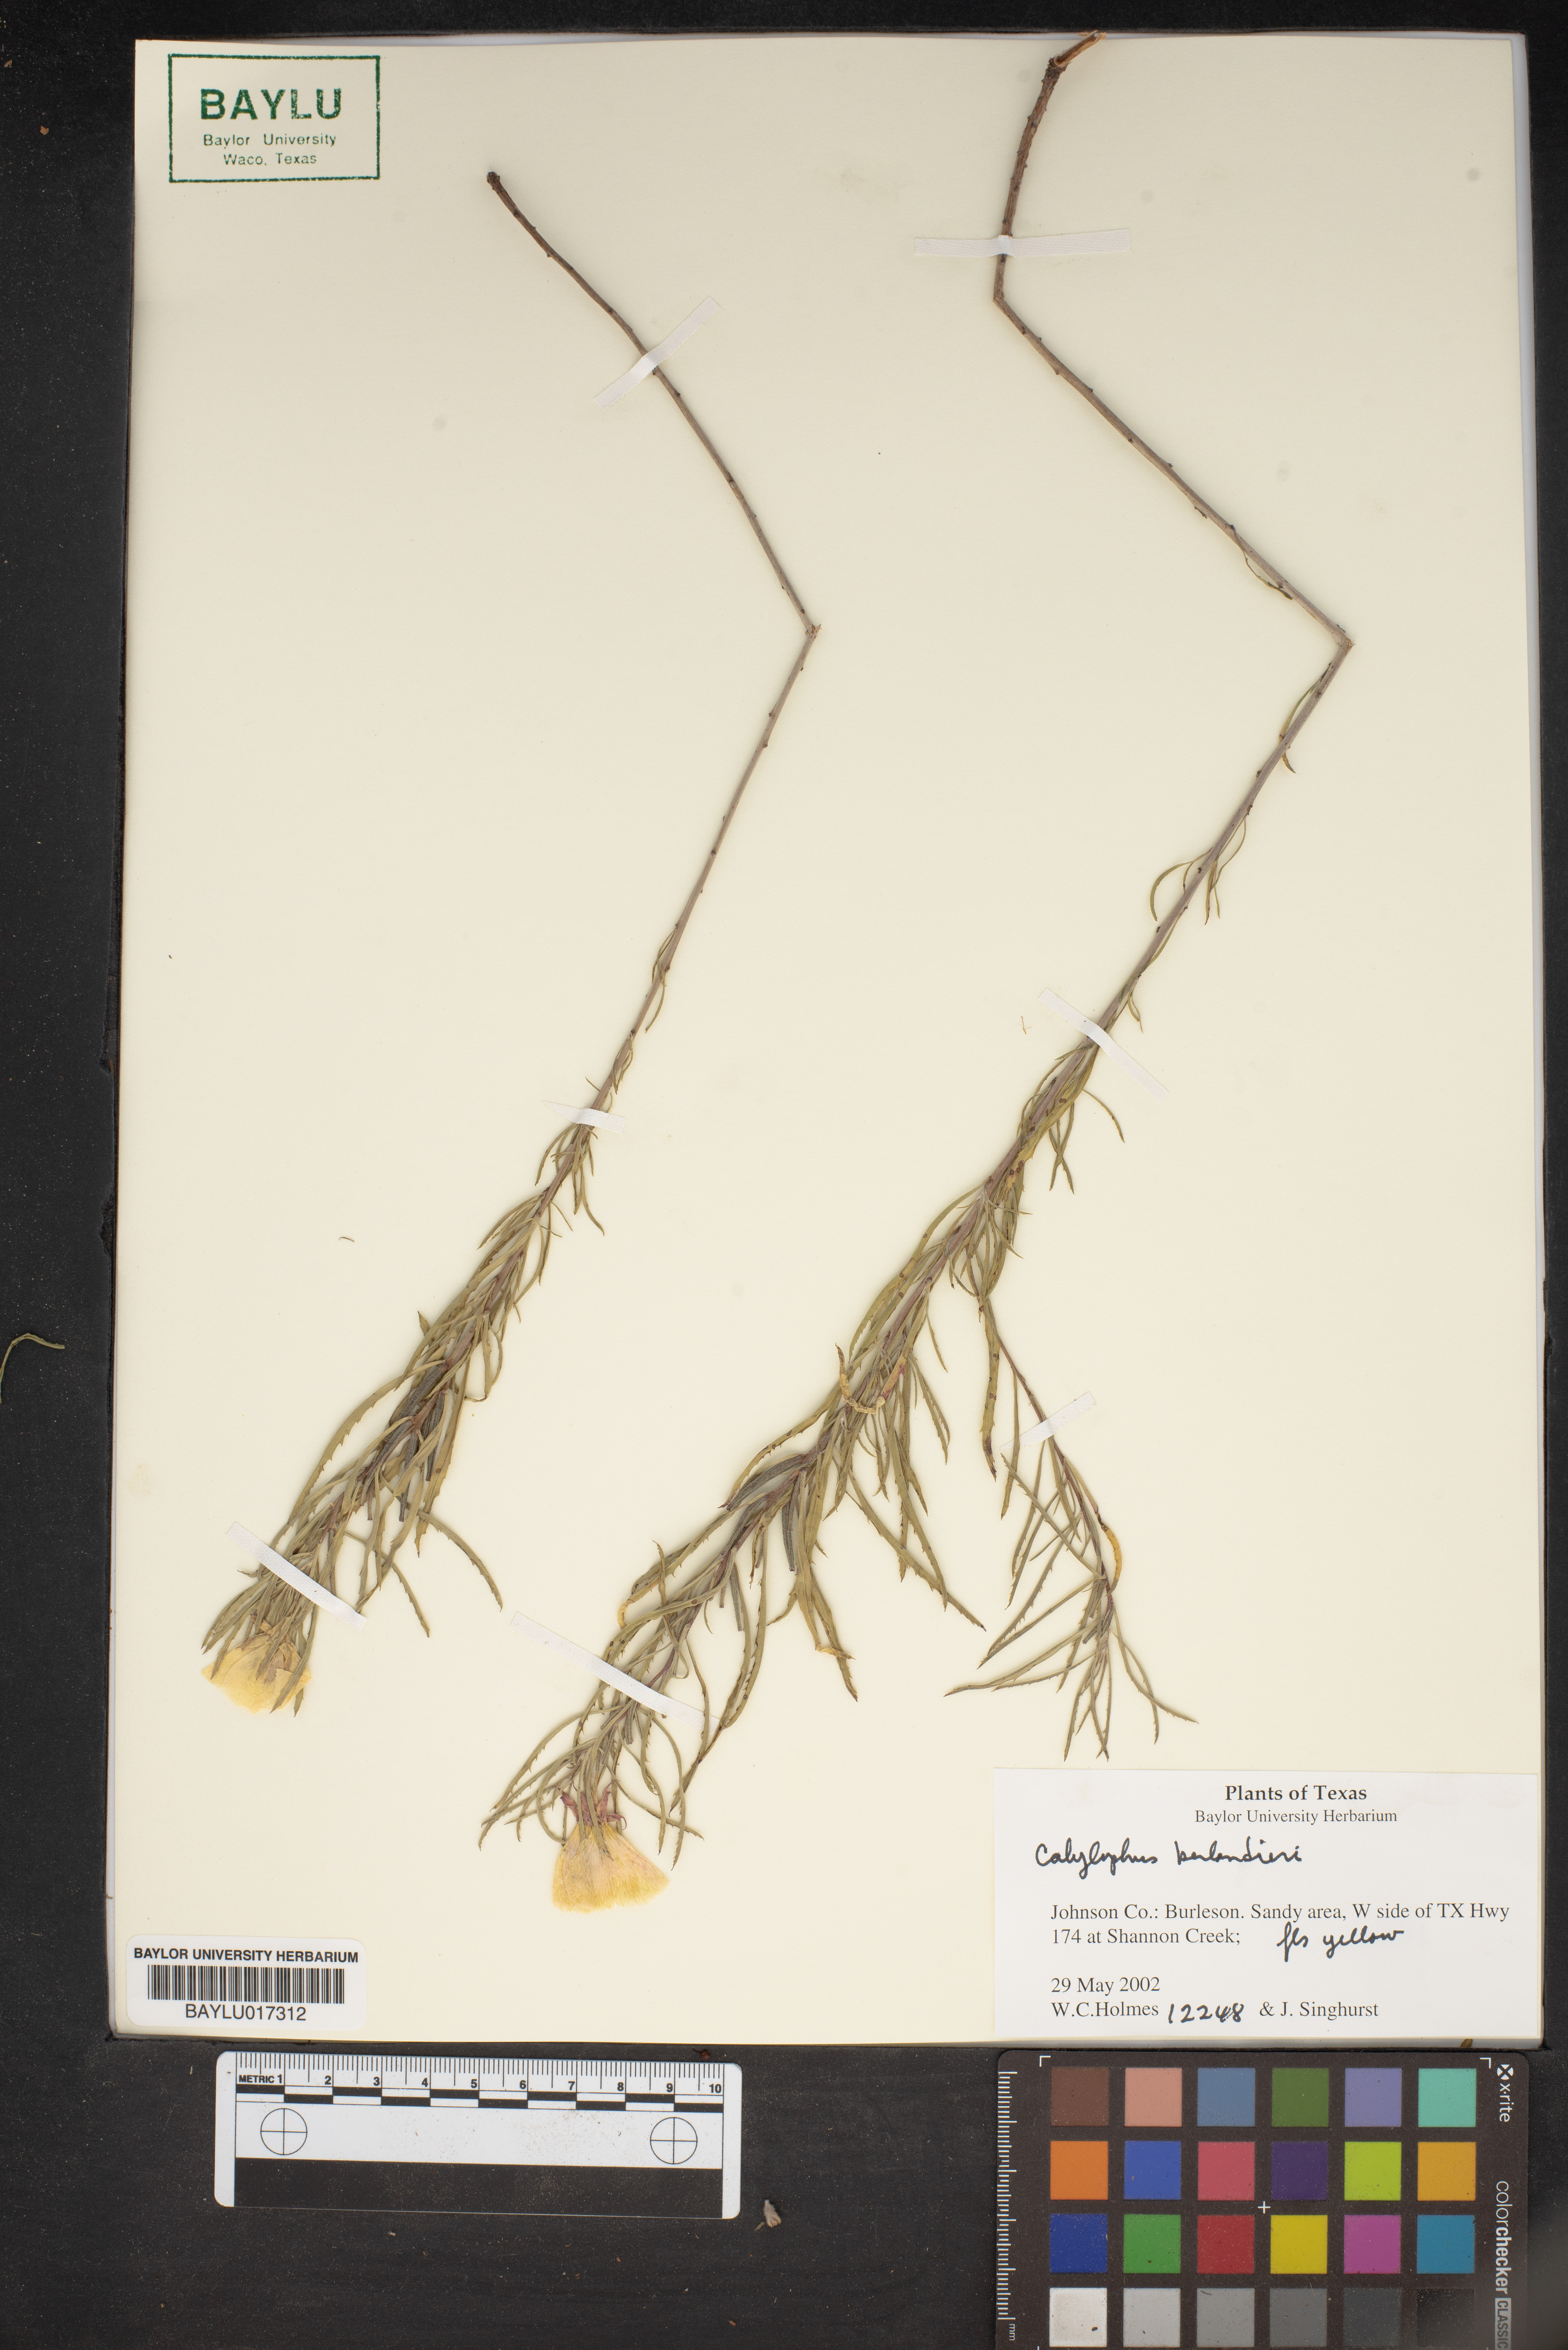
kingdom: Plantae
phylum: Tracheophyta
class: Magnoliopsida
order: Myrtales
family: Onagraceae
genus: Oenothera
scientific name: Oenothera capillifolia
